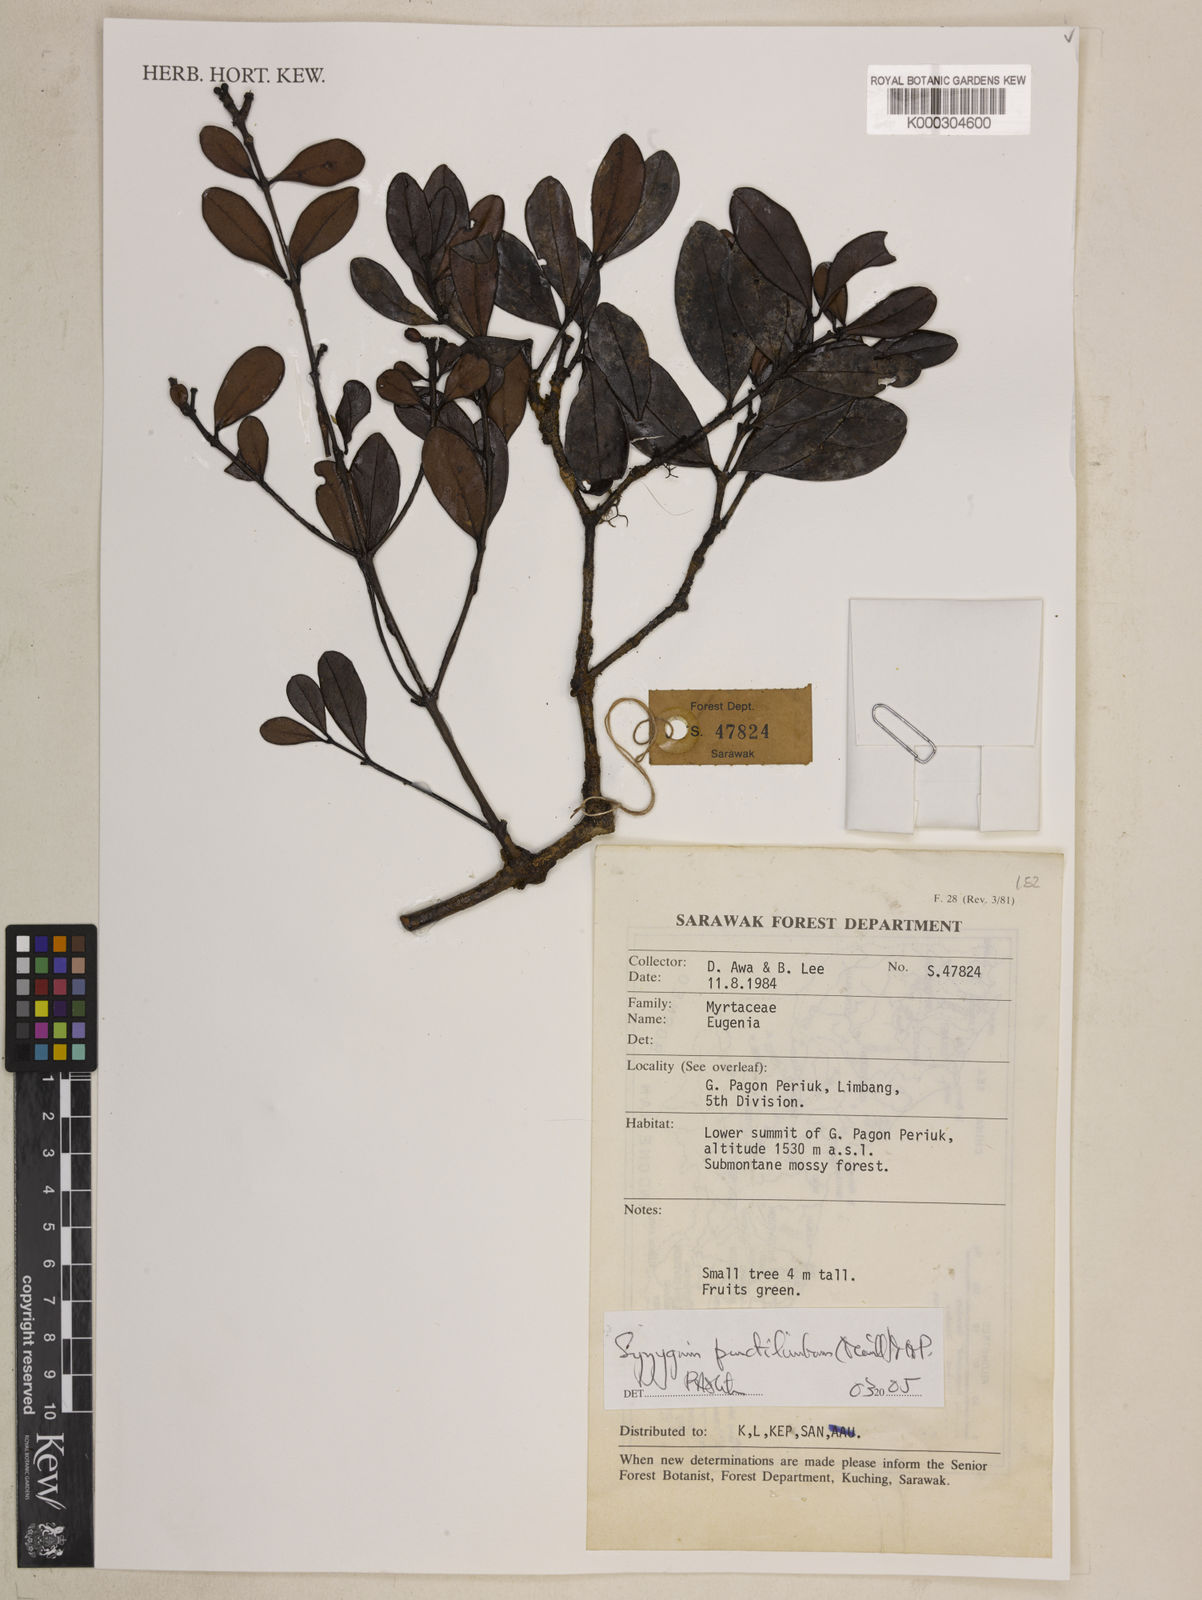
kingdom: Plantae
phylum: Tracheophyta
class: Magnoliopsida
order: Myrtales
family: Myrtaceae
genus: Syzygium
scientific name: Syzygium punctilimbum
